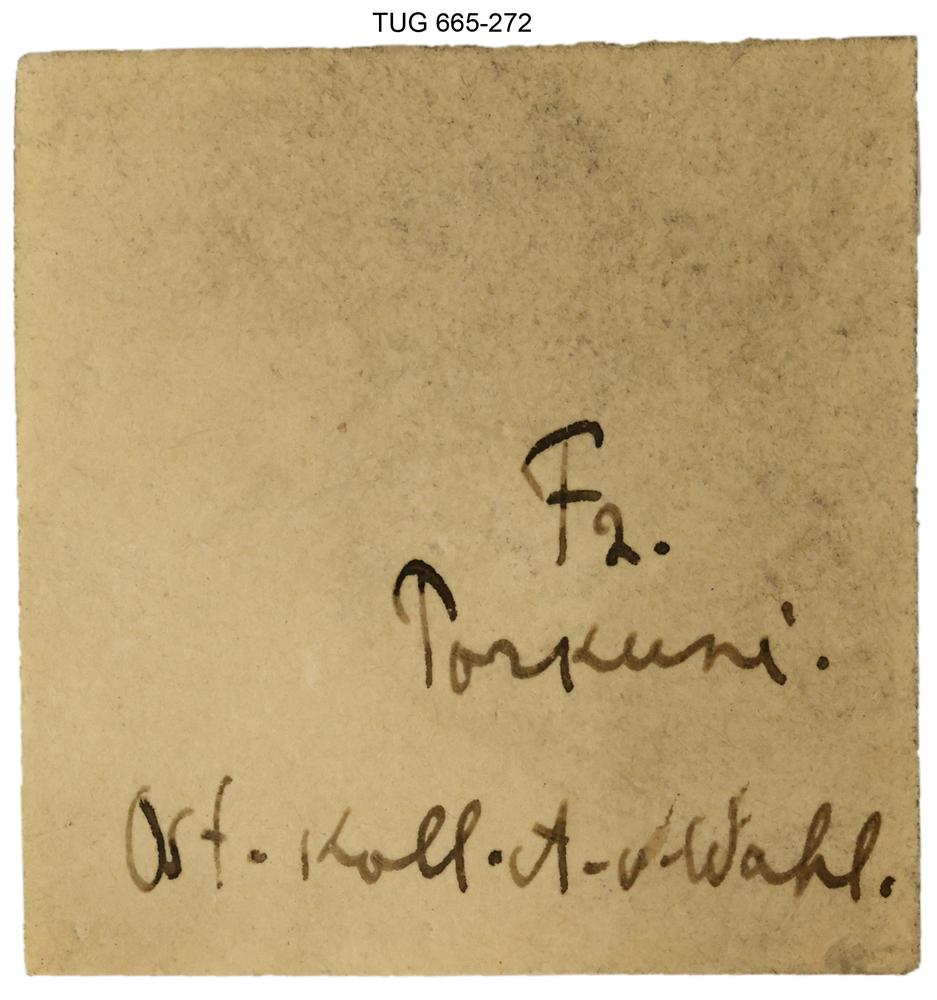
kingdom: Animalia
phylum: Mollusca
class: Gastropoda
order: Pleurotomariida
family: Planitrochidae
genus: Trochomphalus
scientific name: Trochomphalus Pycnomphalus borkholmiensis
